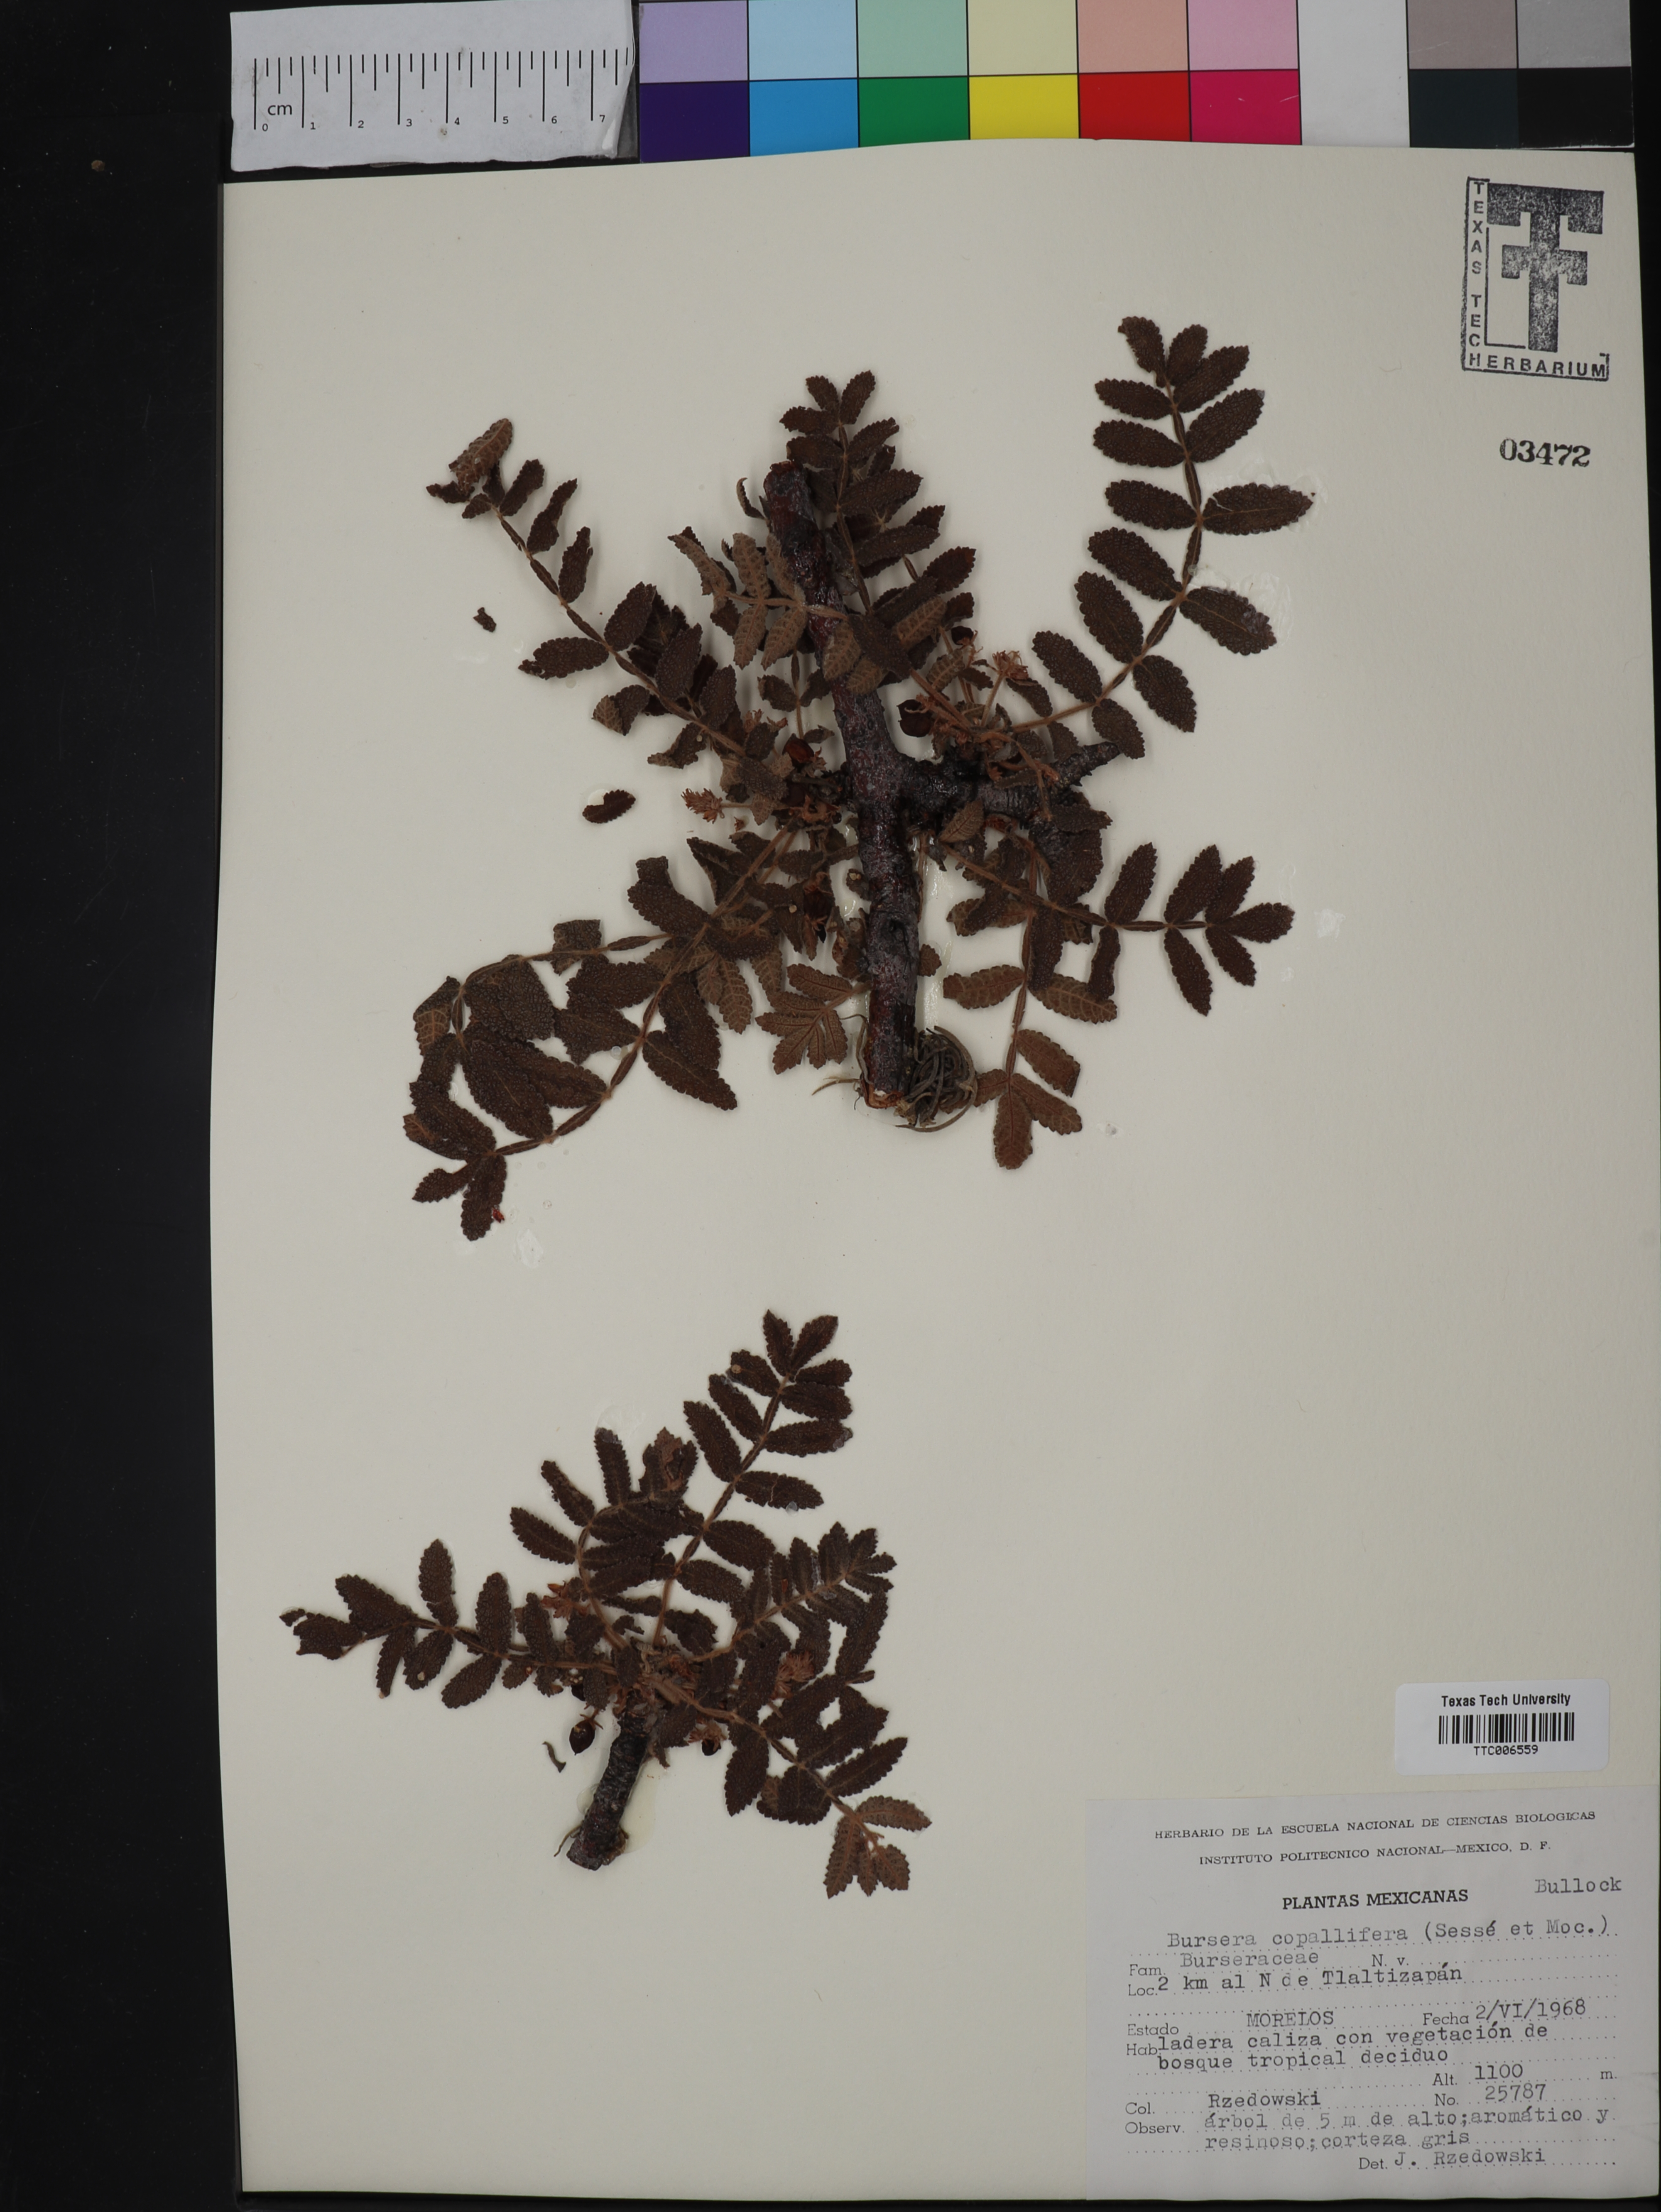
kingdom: Plantae
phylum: Tracheophyta
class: Magnoliopsida
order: Sapindales
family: Burseraceae
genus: Bursera
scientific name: Bursera copallifera
